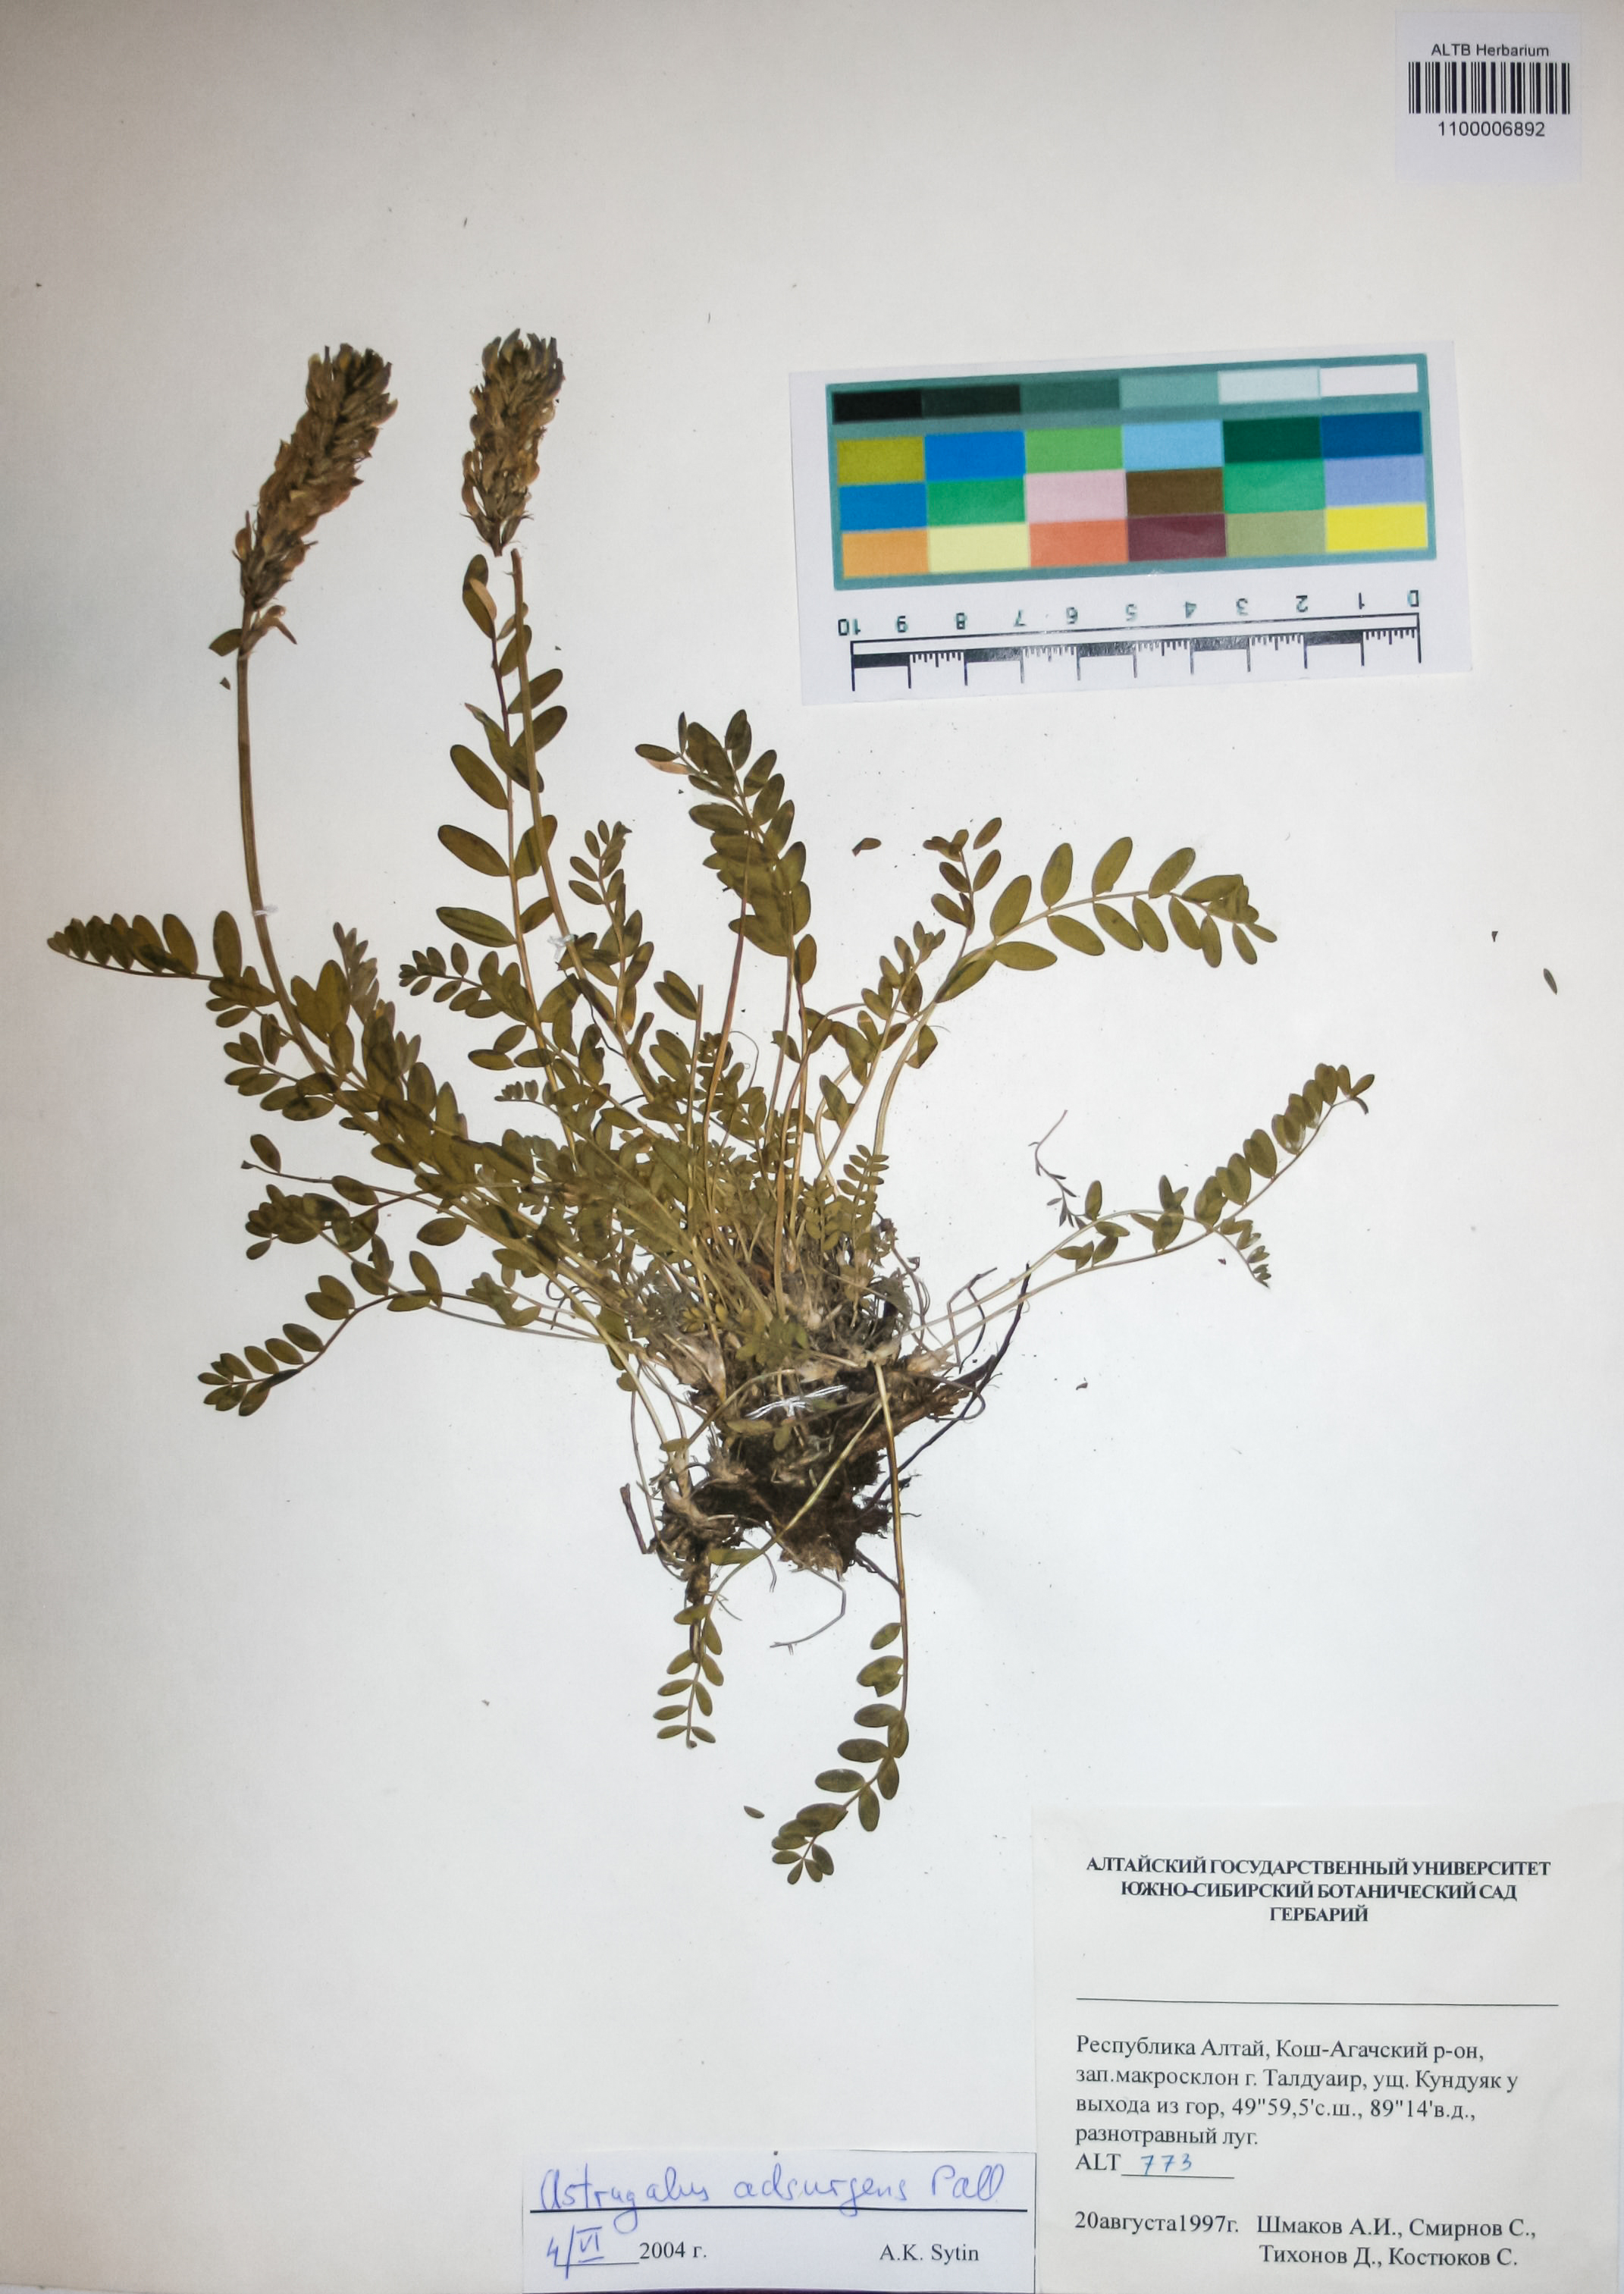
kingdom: Plantae
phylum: Tracheophyta
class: Magnoliopsida
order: Fabales
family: Fabaceae
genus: Astragalus
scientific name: Astragalus laxmannii
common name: Laxmann's milk-vetch
